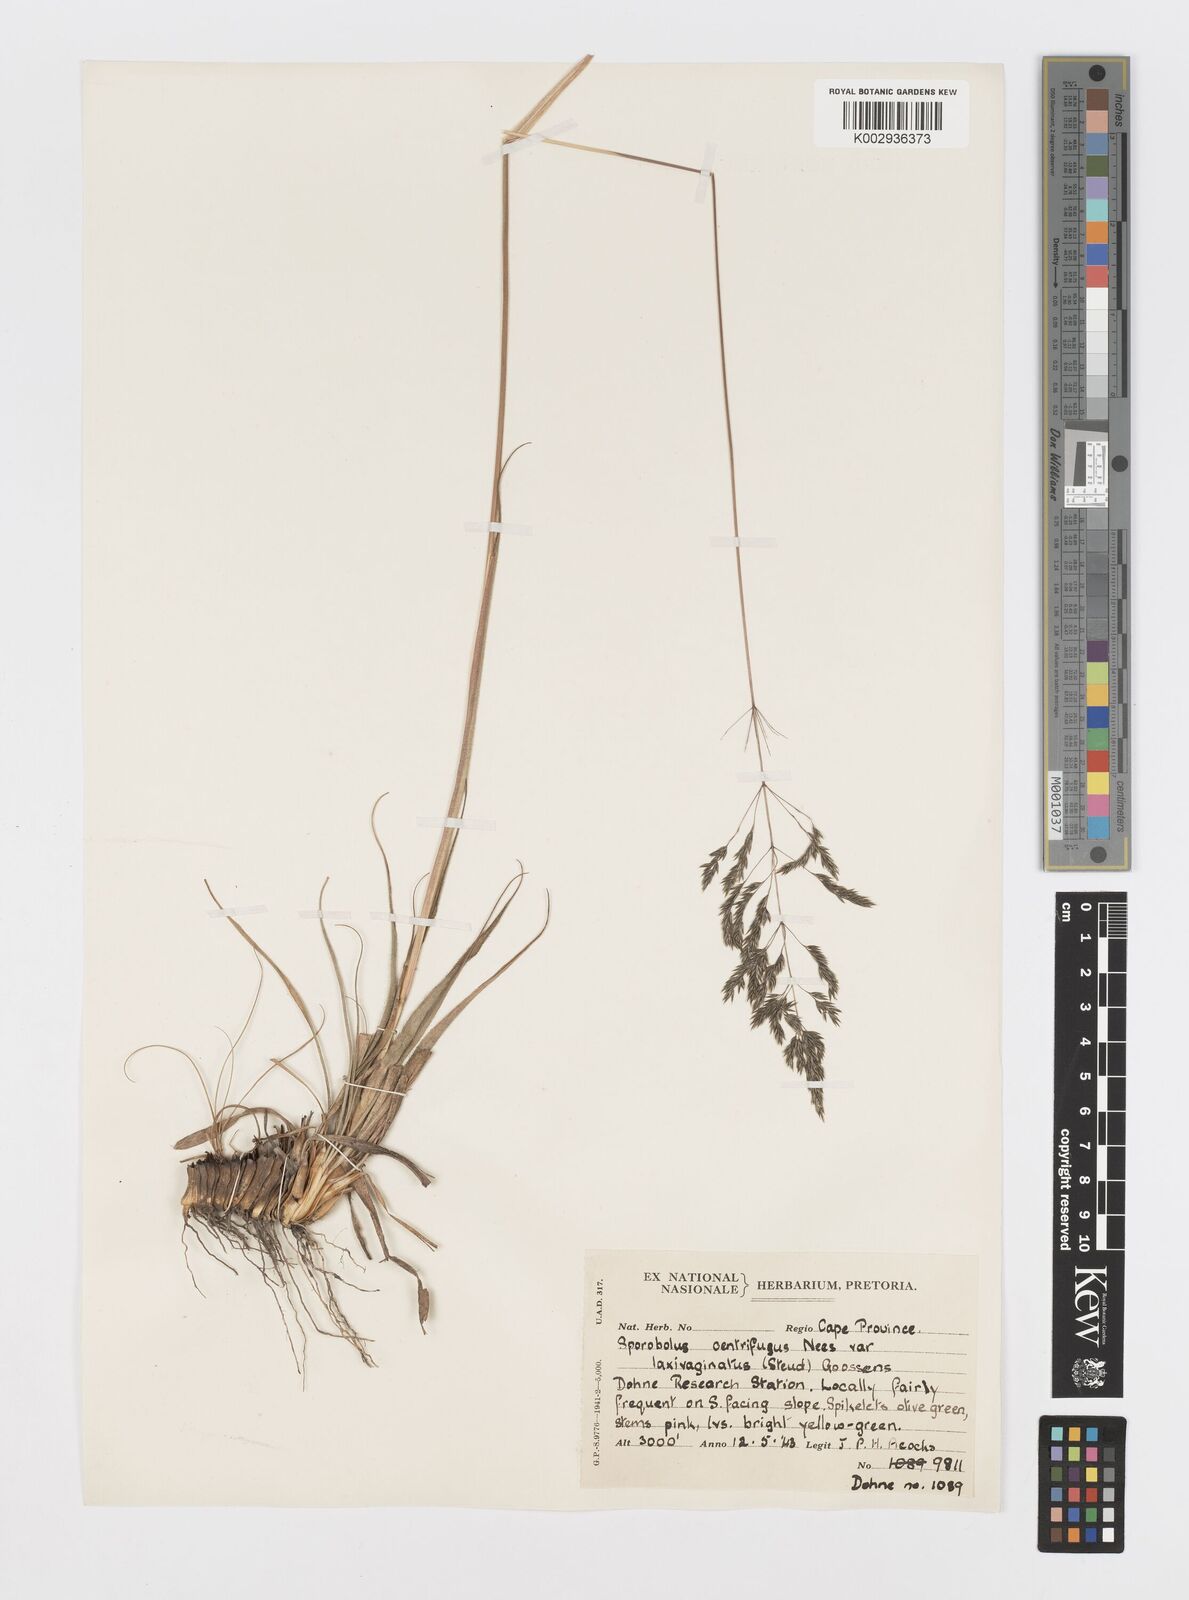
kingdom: Plantae
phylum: Tracheophyta
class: Liliopsida
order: Poales
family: Poaceae
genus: Sporobolus
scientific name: Sporobolus centrifugus
